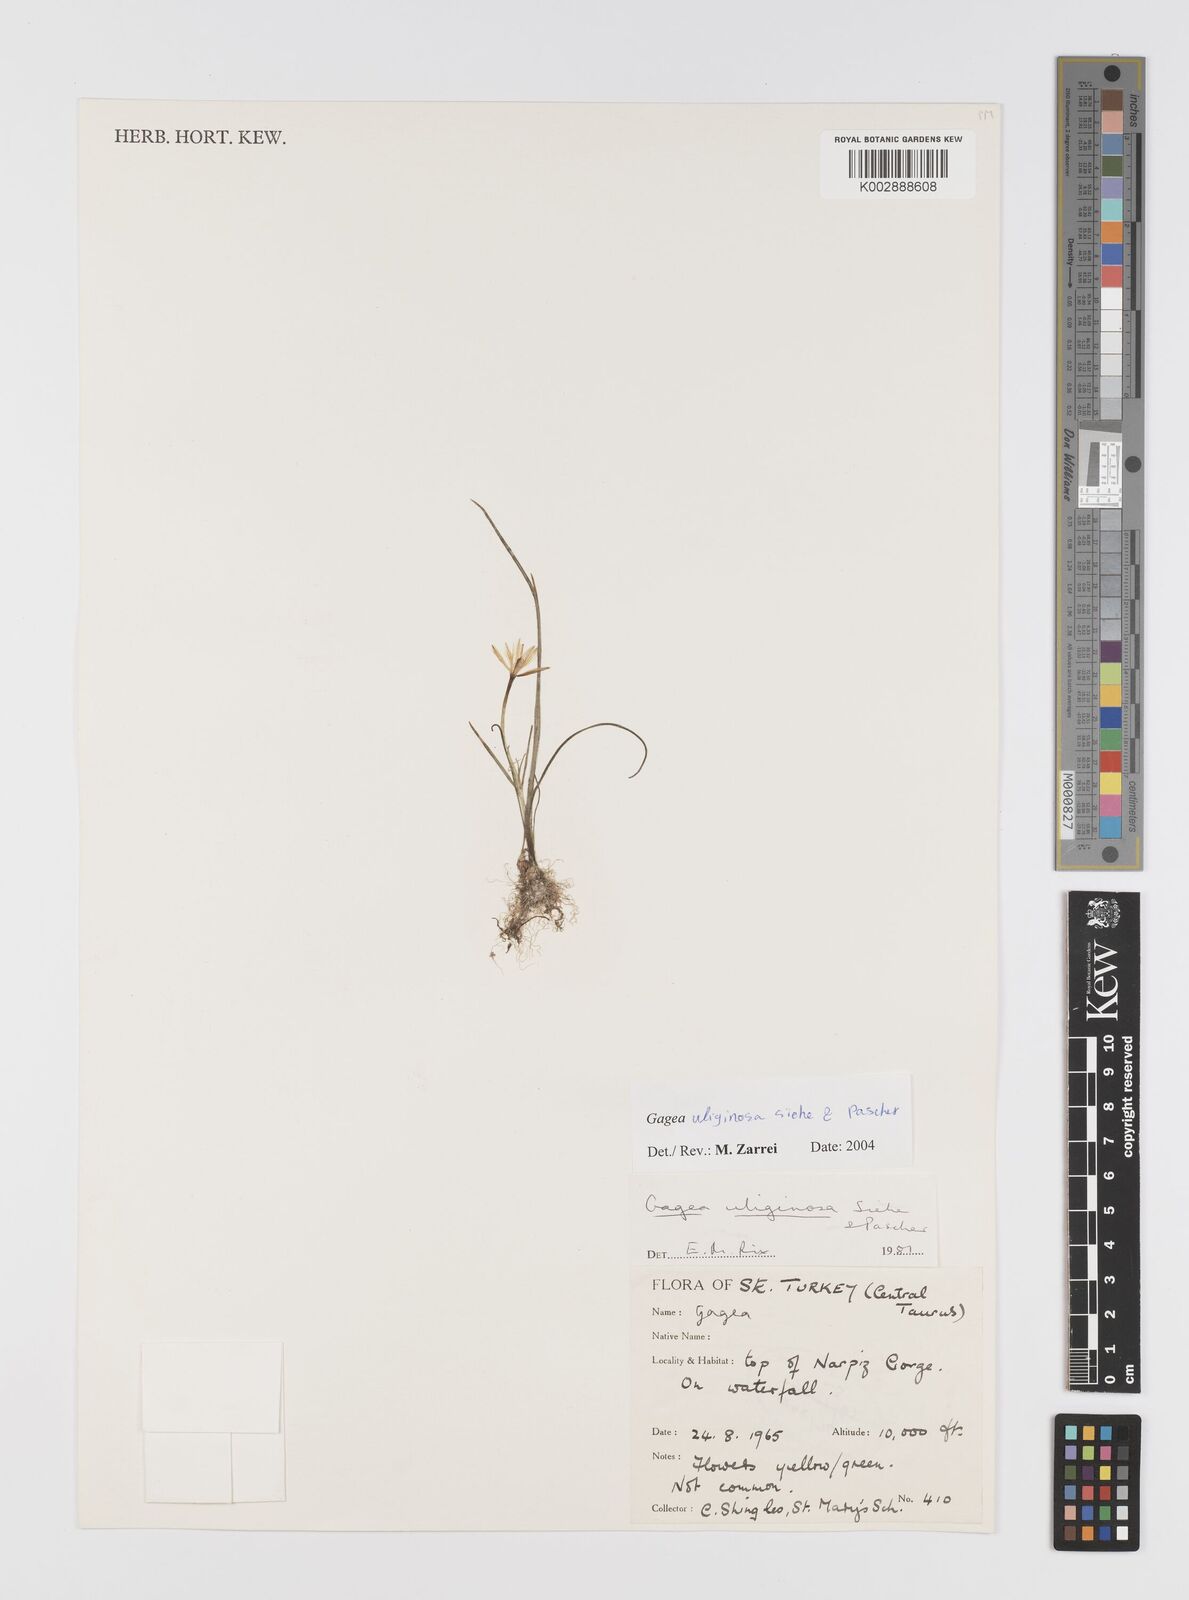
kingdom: Plantae
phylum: Tracheophyta
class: Liliopsida
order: Liliales
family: Liliaceae
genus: Gagea
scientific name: Gagea uliginosa
